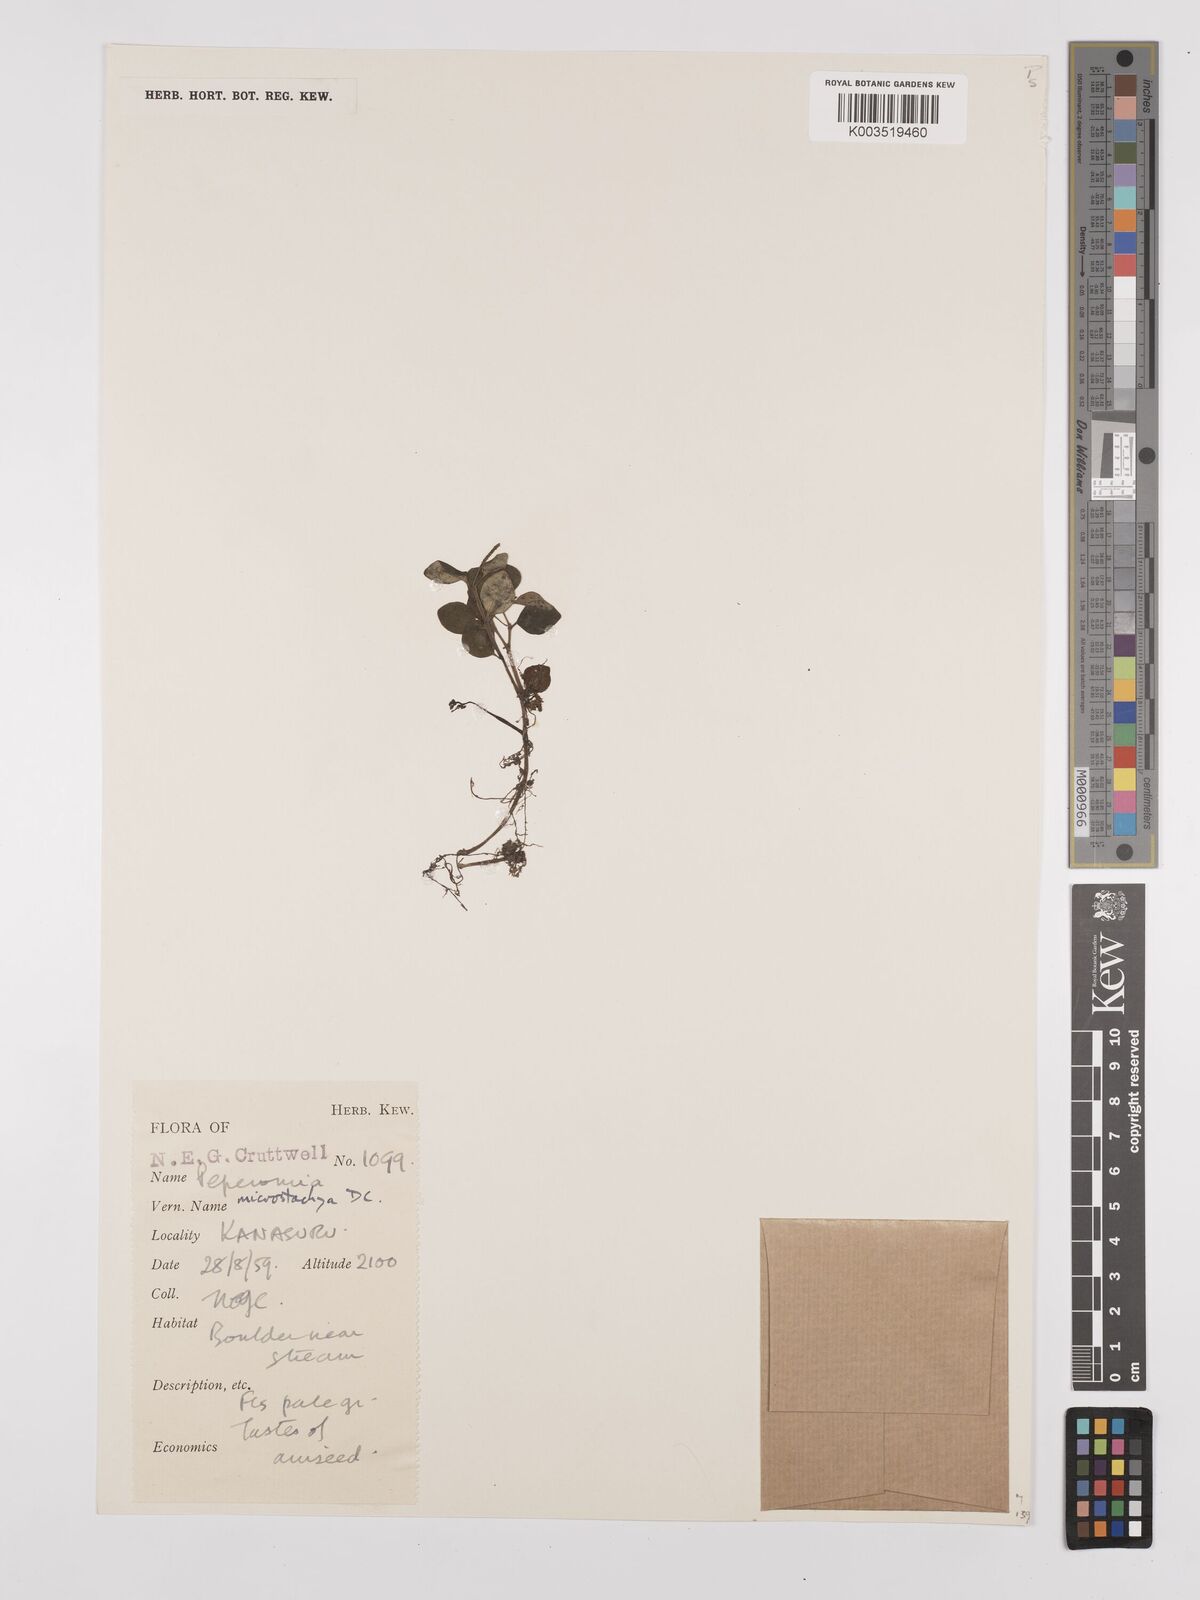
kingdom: Plantae
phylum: Tracheophyta
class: Magnoliopsida
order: Piperales
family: Piperaceae
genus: Peperomia
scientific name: Peperomia microstachya
